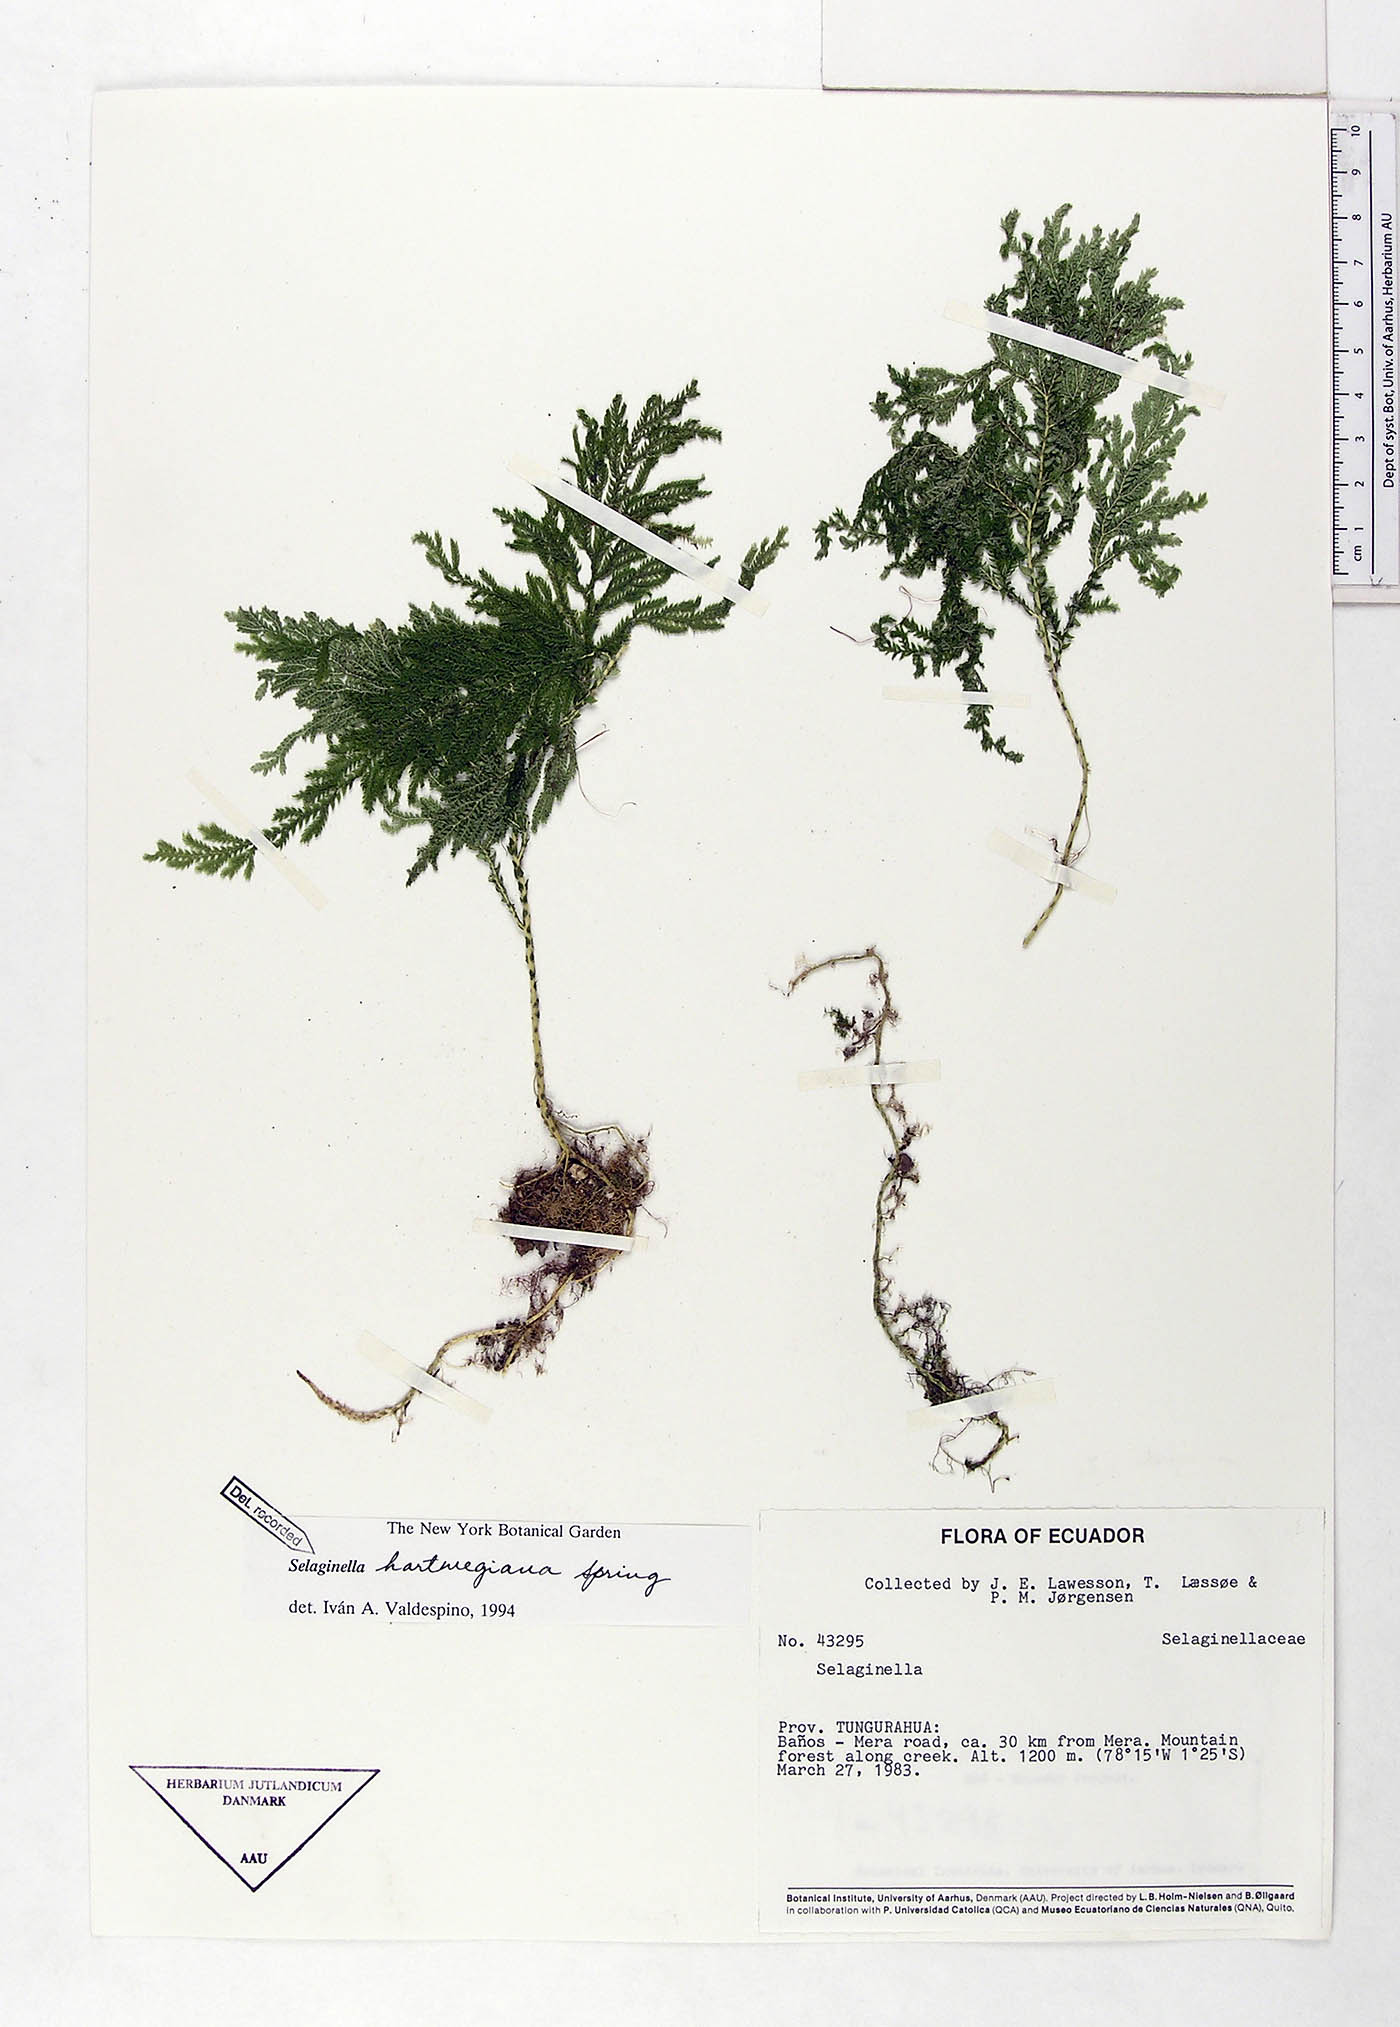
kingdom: Plantae
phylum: Tracheophyta
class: Lycopodiopsida
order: Selaginellales
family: Selaginellaceae
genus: Selaginella
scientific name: Selaginella hartwegiana
